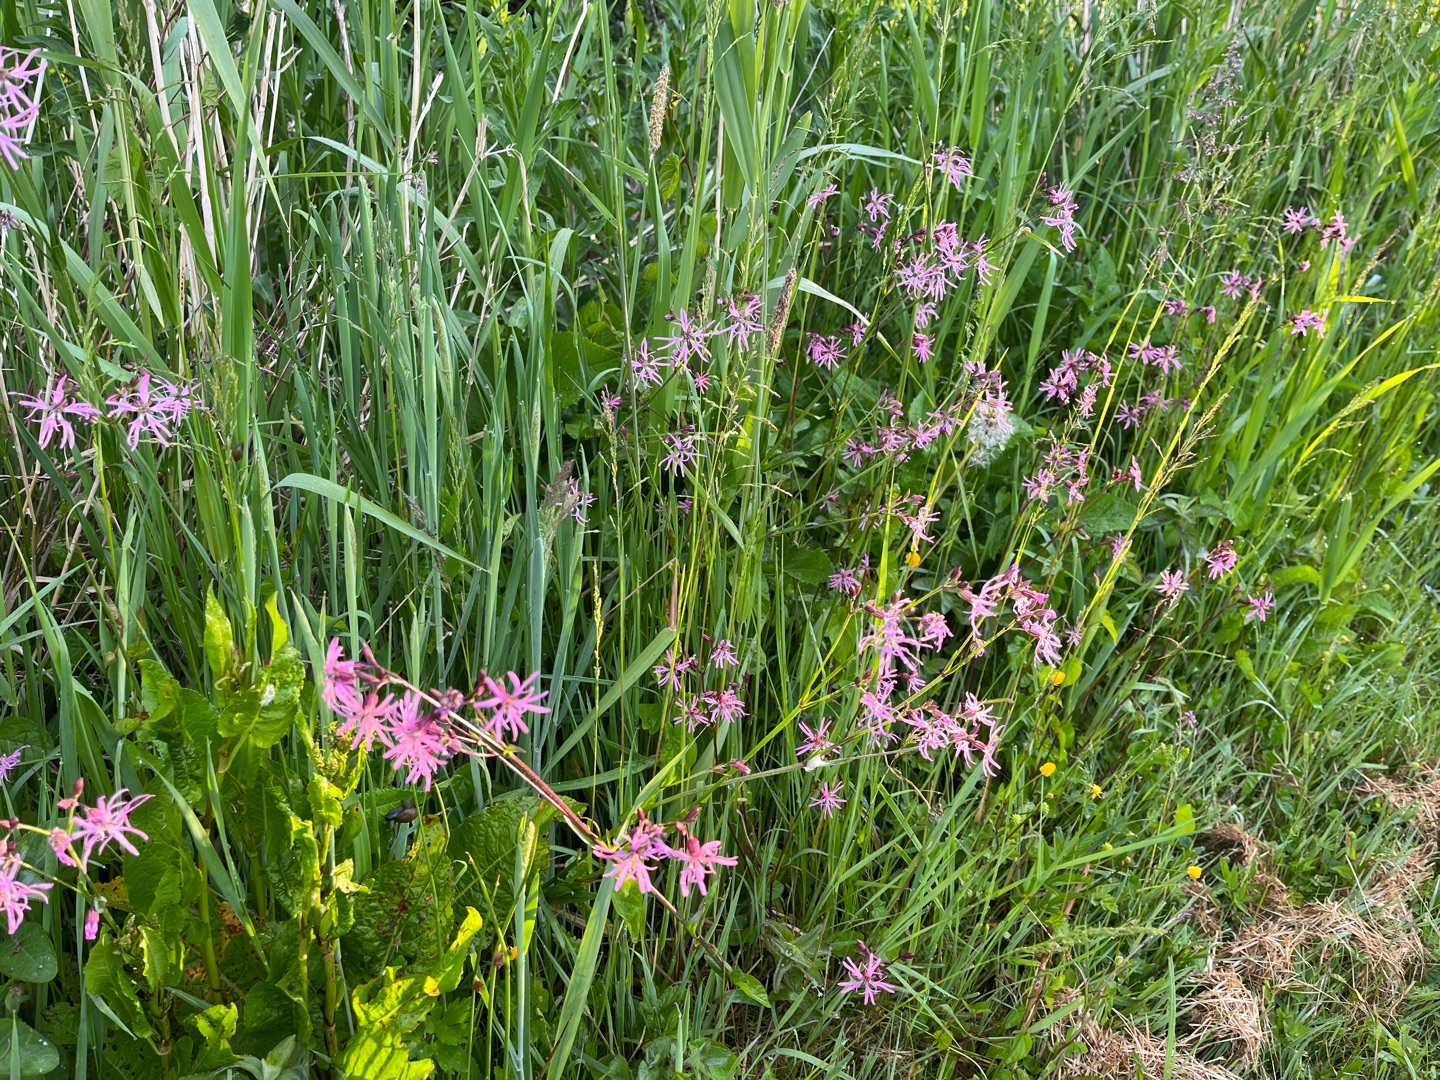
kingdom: Plantae
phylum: Tracheophyta
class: Magnoliopsida
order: Caryophyllales
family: Caryophyllaceae
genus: Silene
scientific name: Silene flos-cuculi
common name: Trævlekrone
